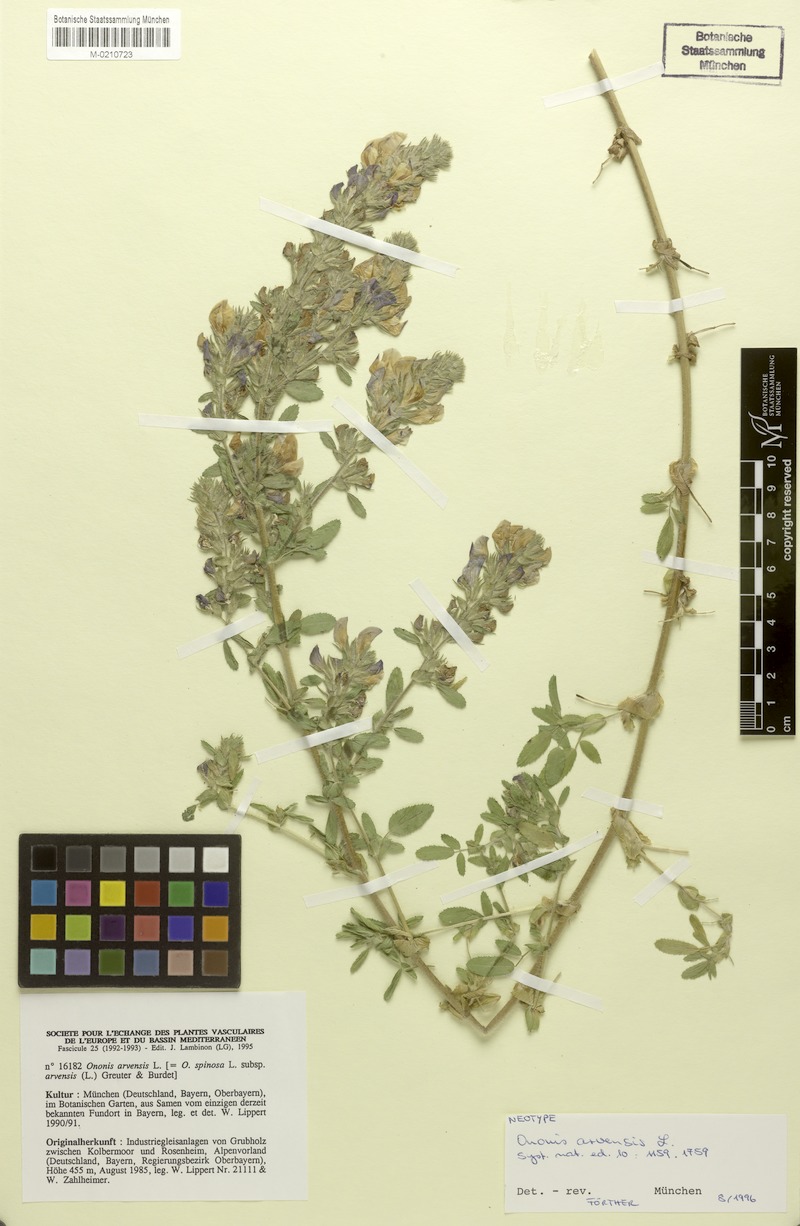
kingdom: Plantae
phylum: Tracheophyta
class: Magnoliopsida
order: Fabales
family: Fabaceae
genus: Ononis
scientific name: Ononis arvensis
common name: Field restharrow
